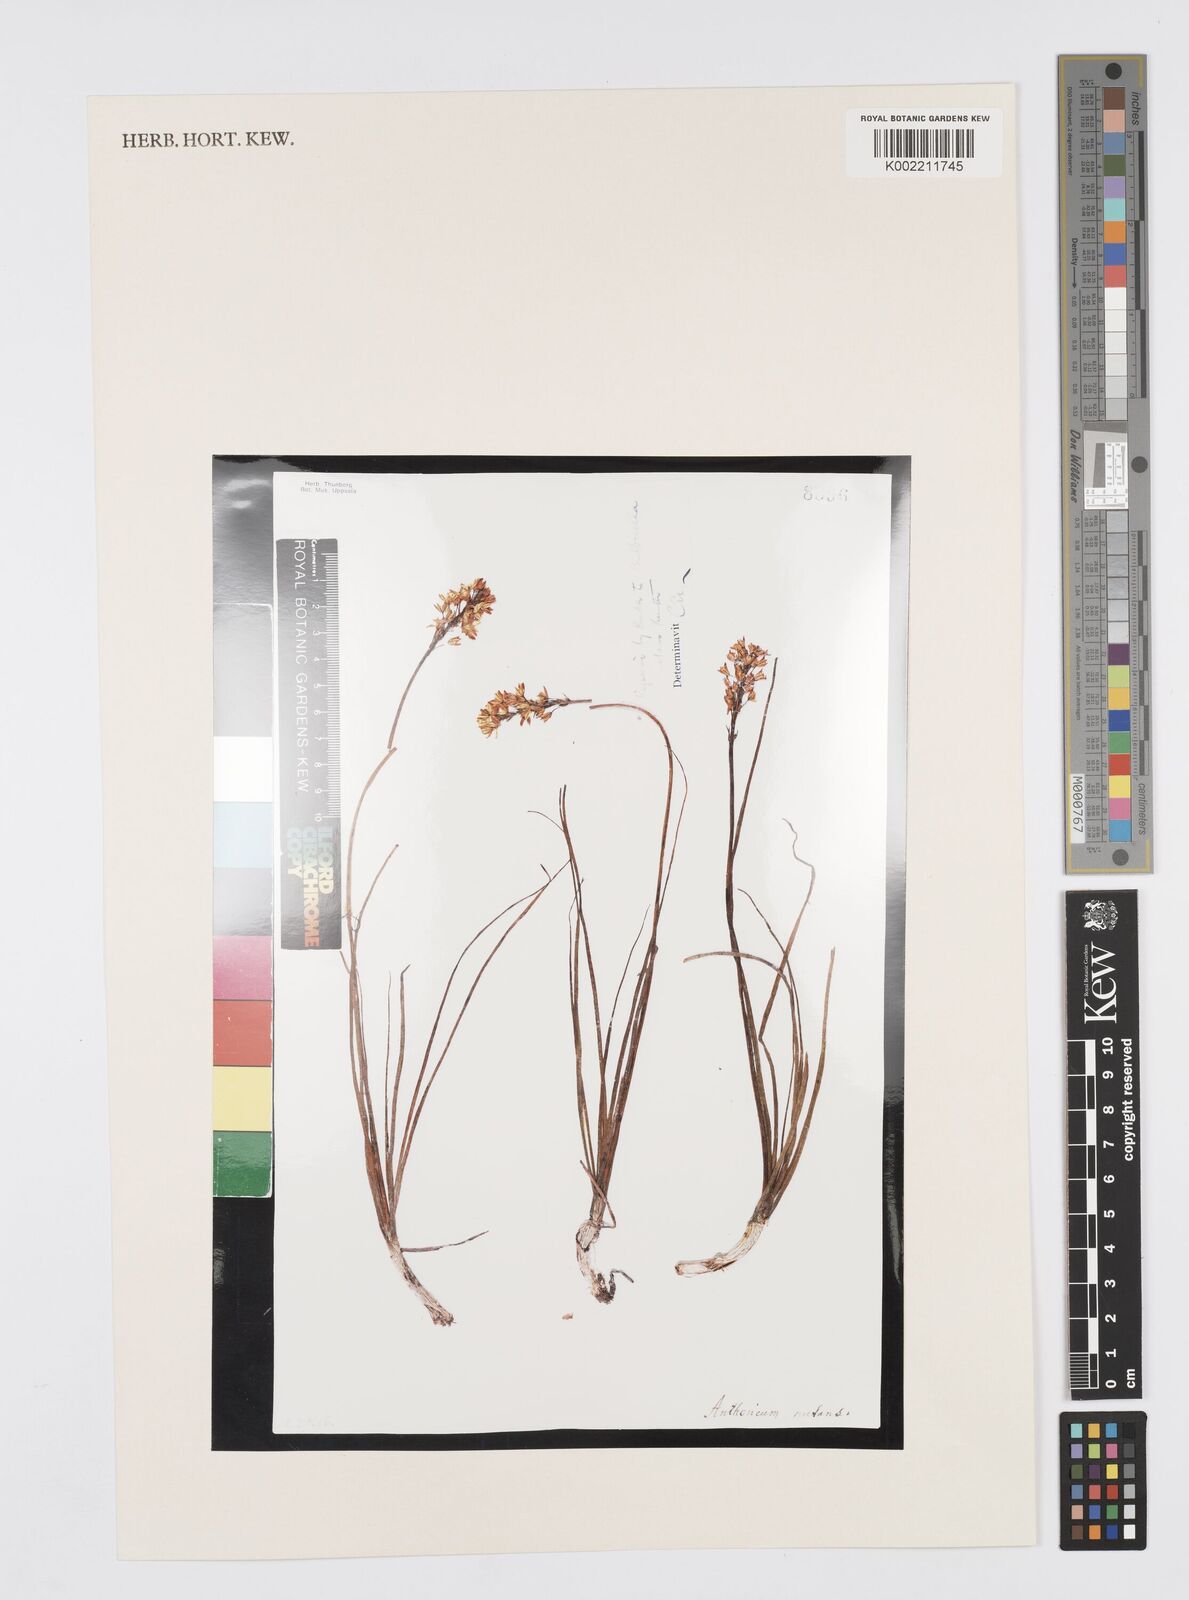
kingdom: Plantae
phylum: Tracheophyta
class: Liliopsida
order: Asparagales
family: Asphodelaceae
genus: Bulbinella
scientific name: Bulbinella nutans
